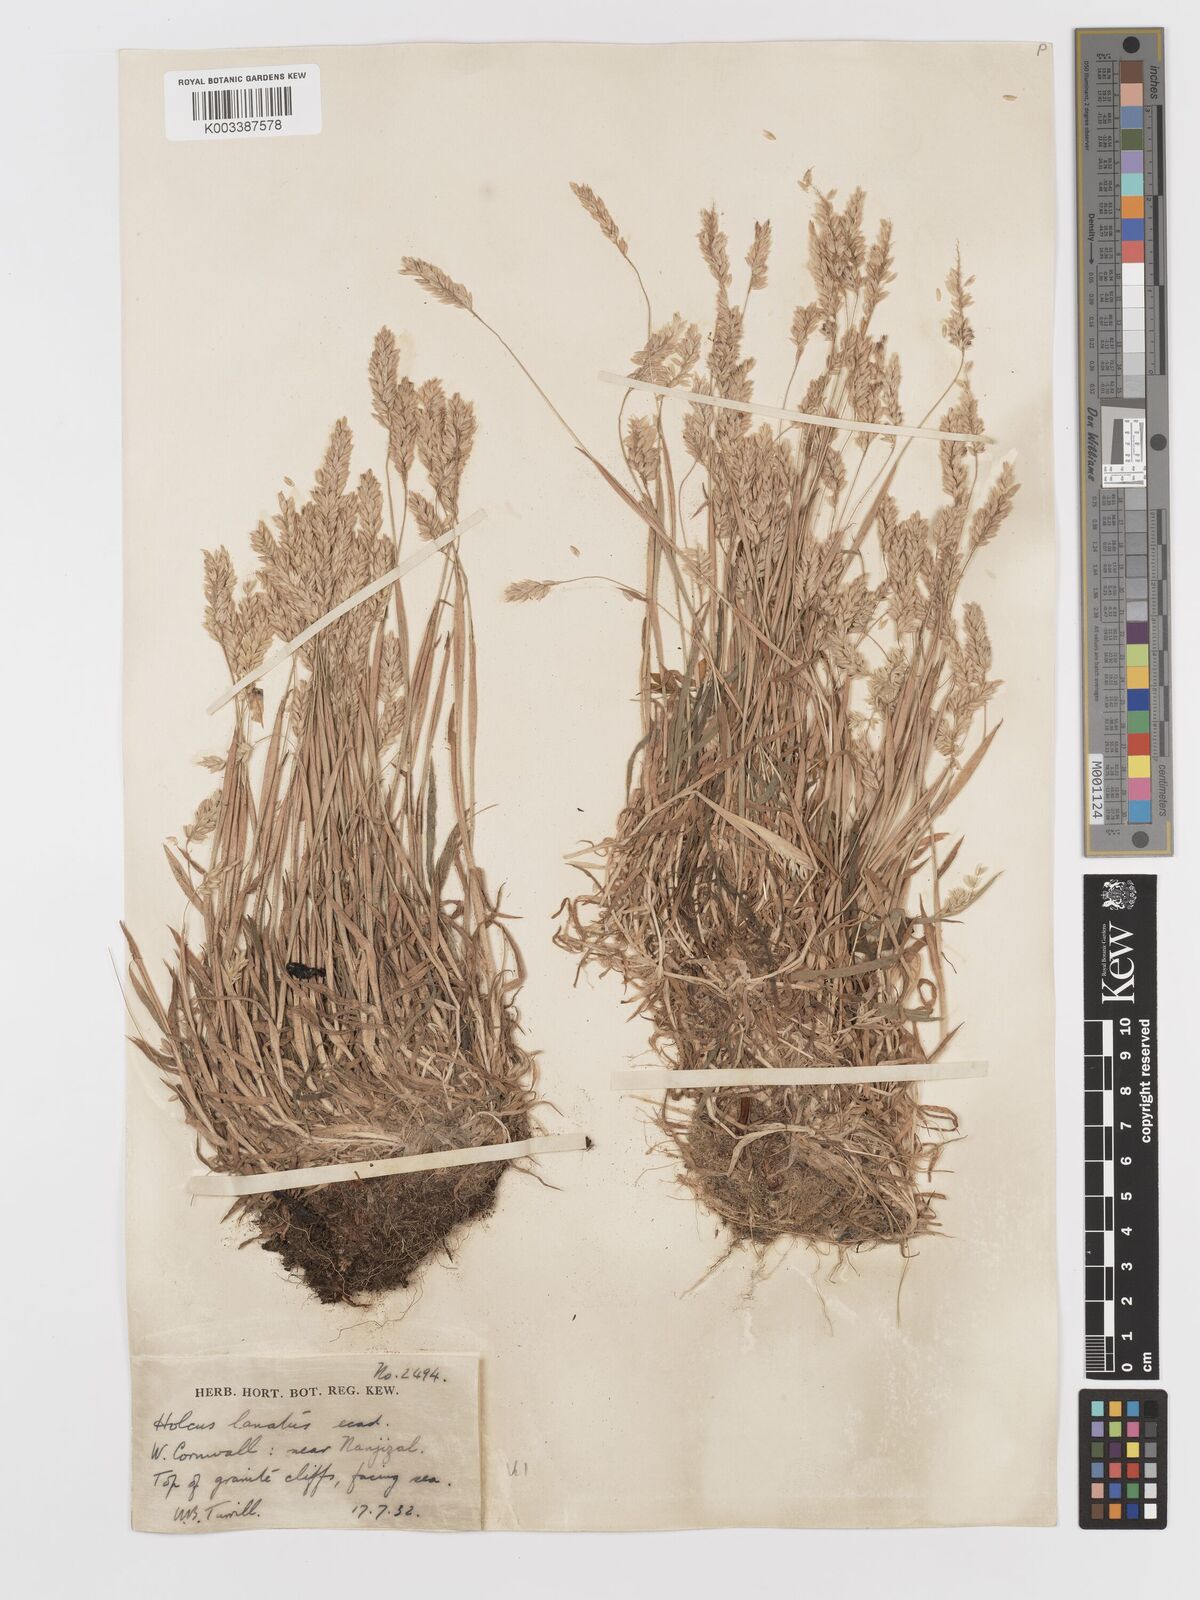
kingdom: Plantae
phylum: Tracheophyta
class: Liliopsida
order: Poales
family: Poaceae
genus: Holcus
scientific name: Holcus lanatus
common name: Yorkshire-fog
